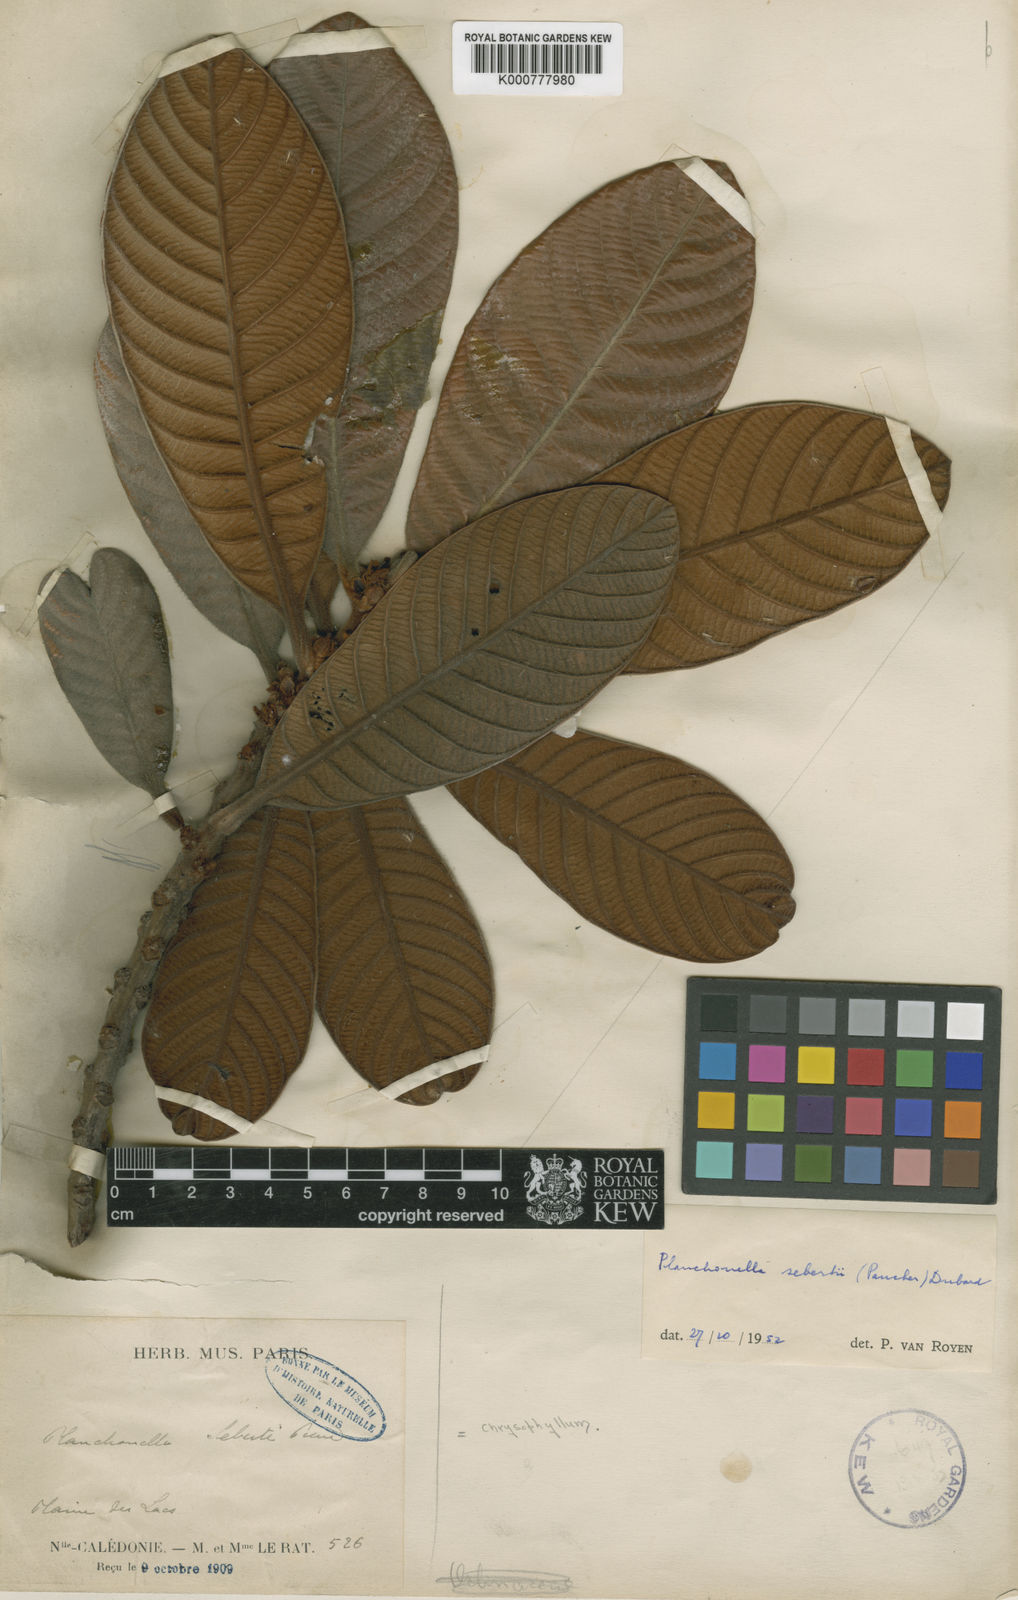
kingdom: Plantae
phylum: Tracheophyta
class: Magnoliopsida
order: Ericales
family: Sapotaceae
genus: Pleioluma
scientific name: Pleioluma sebertii
